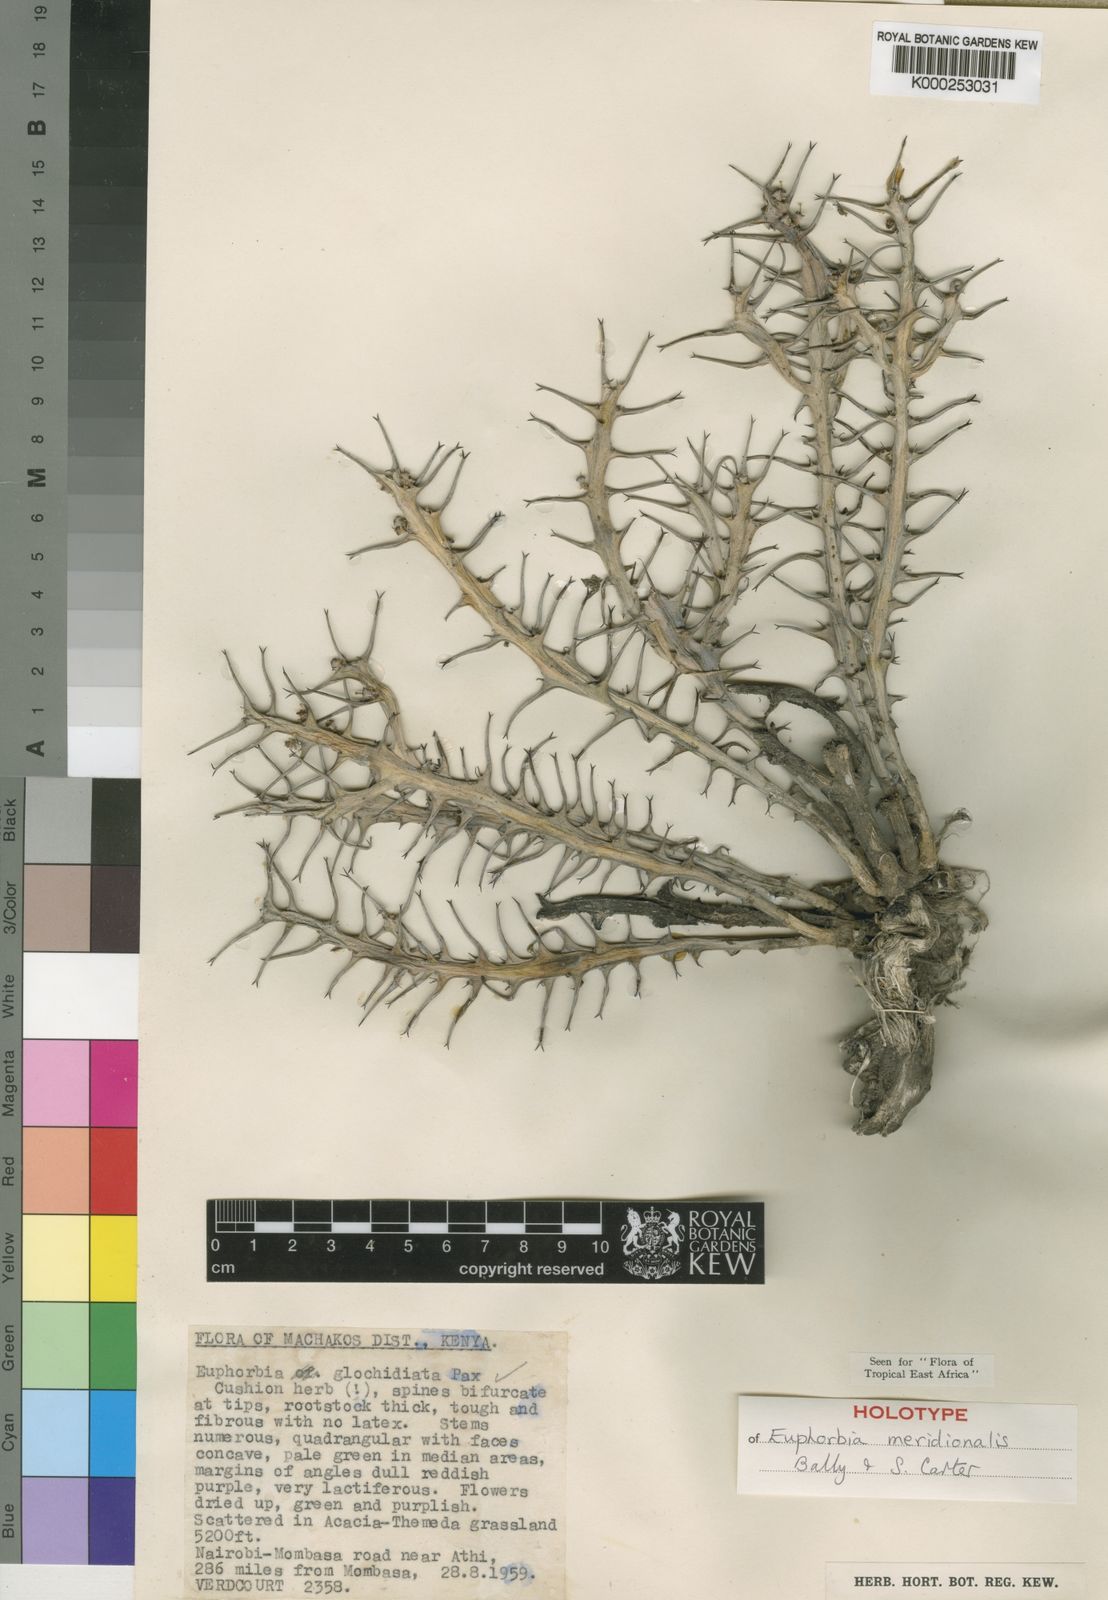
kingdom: Plantae
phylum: Tracheophyta
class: Magnoliopsida
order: Malpighiales
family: Euphorbiaceae
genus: Euphorbia
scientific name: Euphorbia meridionalis
